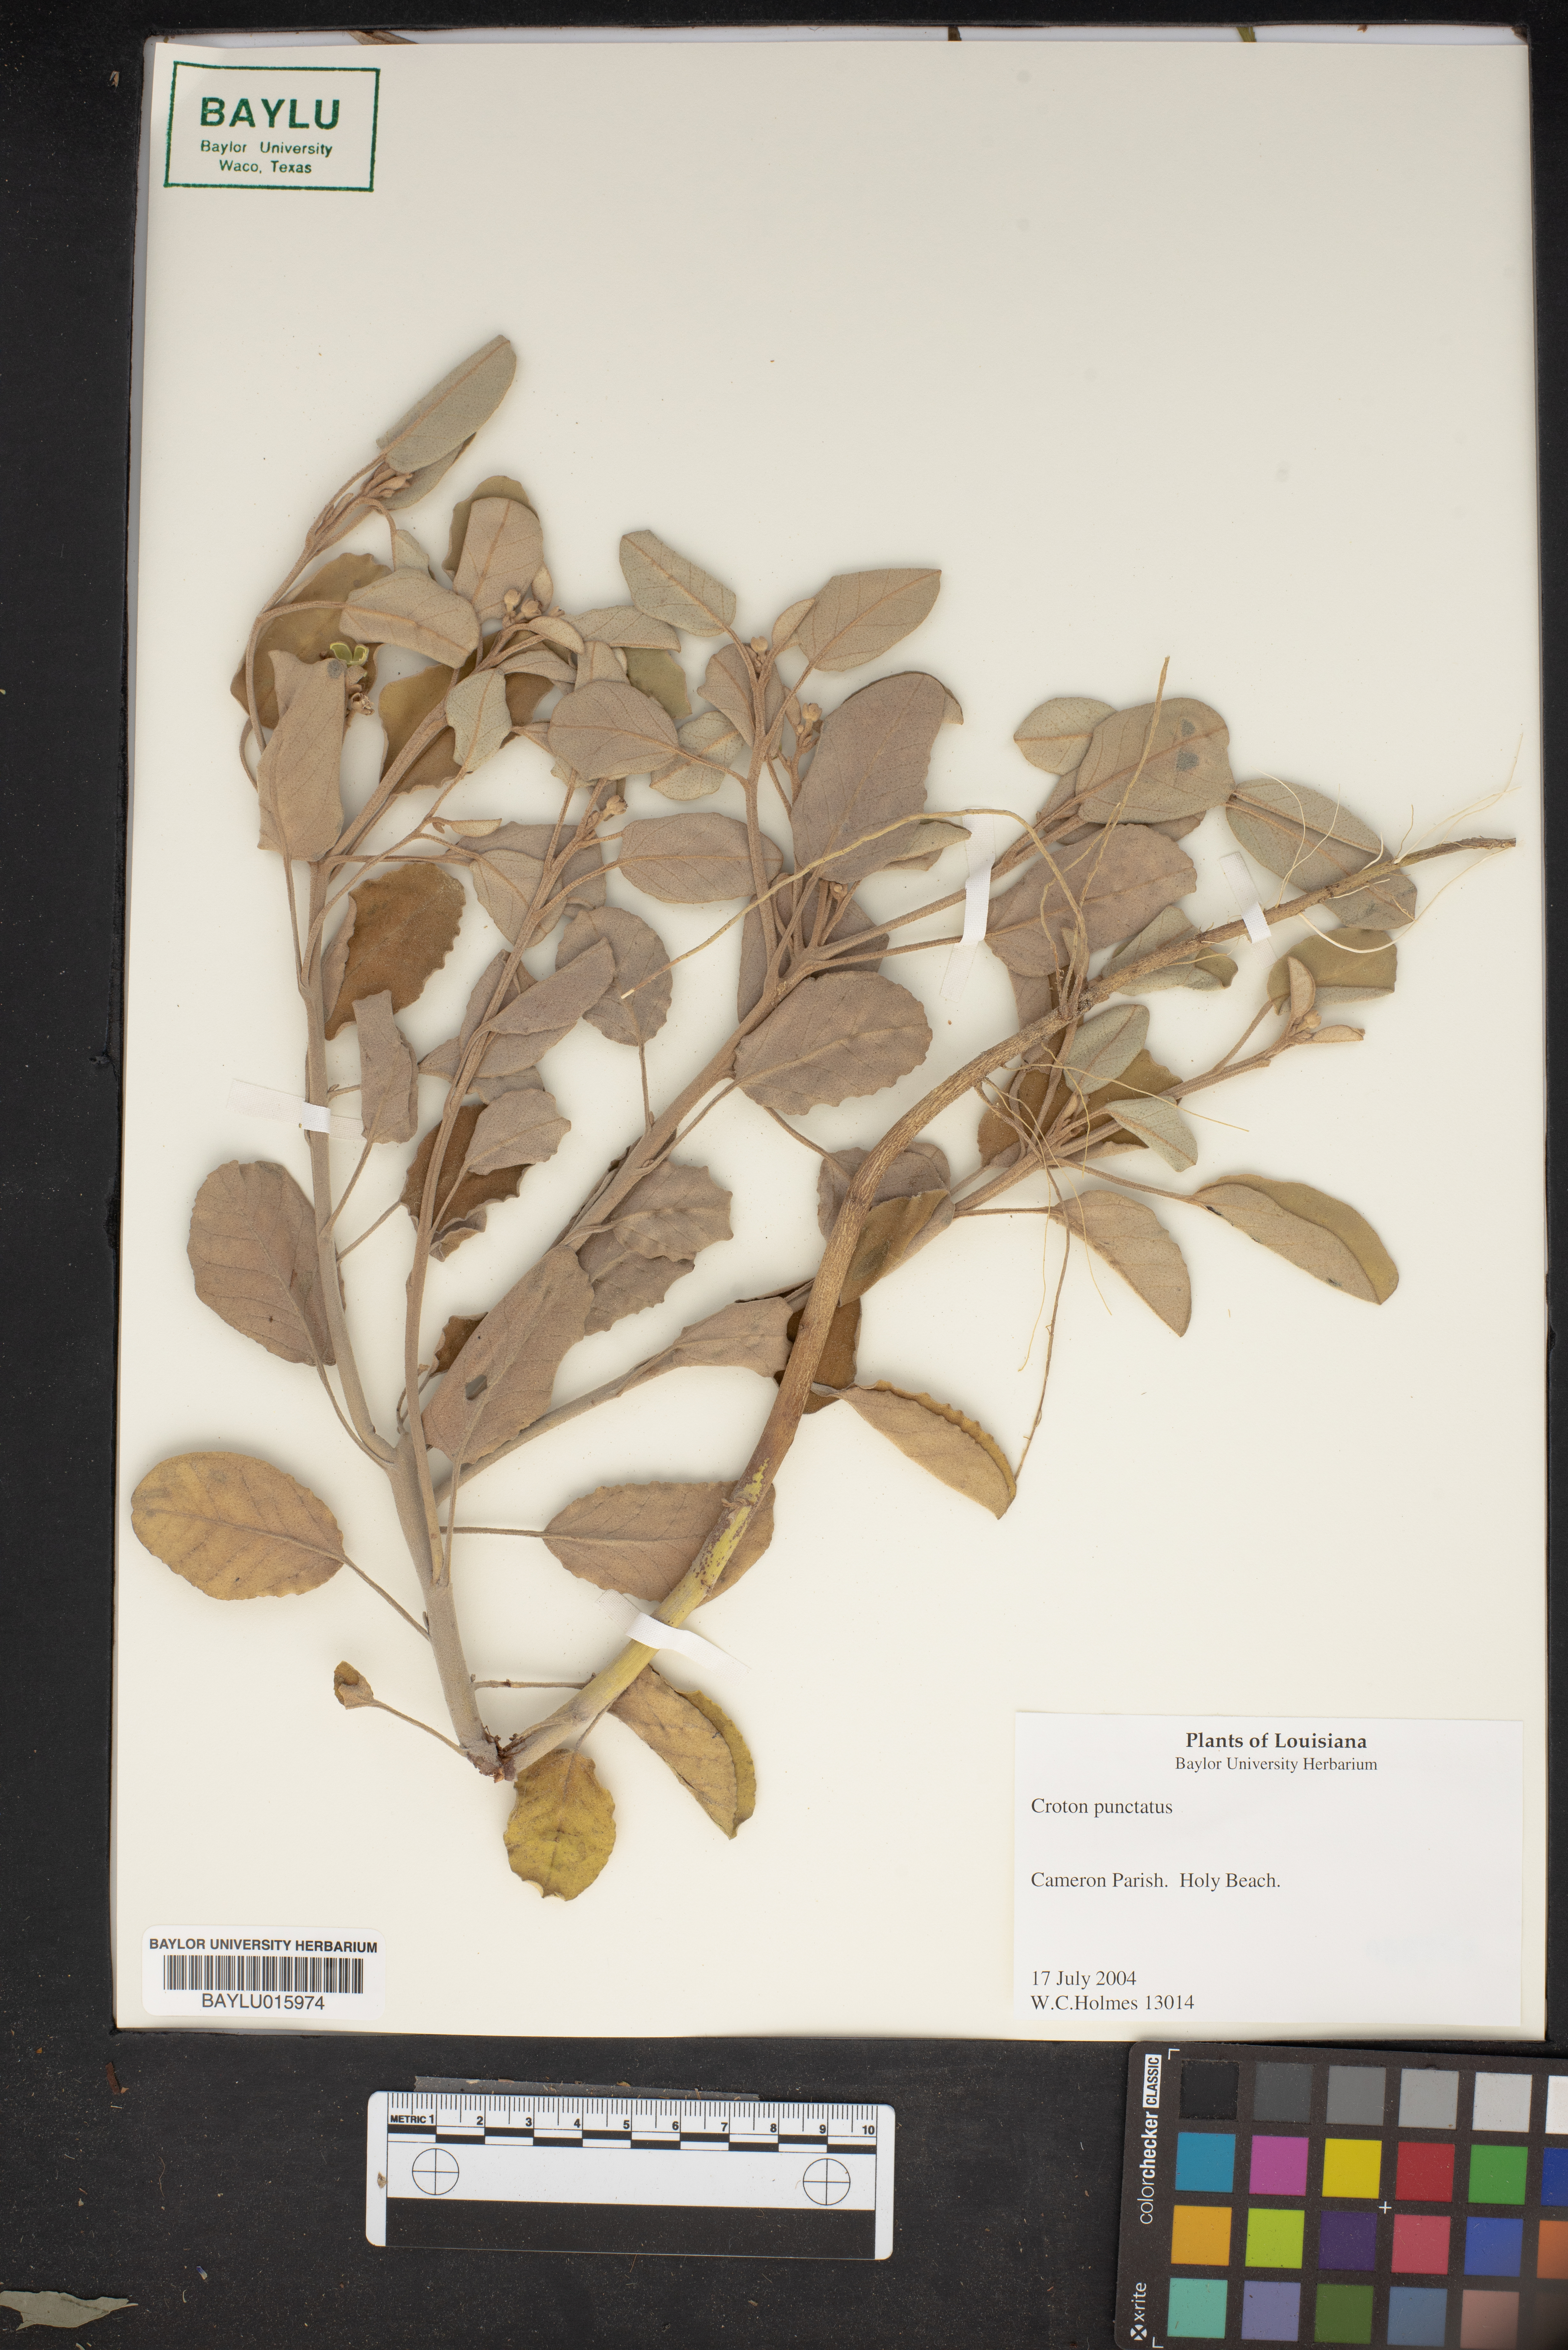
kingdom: Plantae
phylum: Tracheophyta
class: Magnoliopsida
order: Malpighiales
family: Euphorbiaceae
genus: Croton
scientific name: Croton punctatus
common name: Beach-tea
